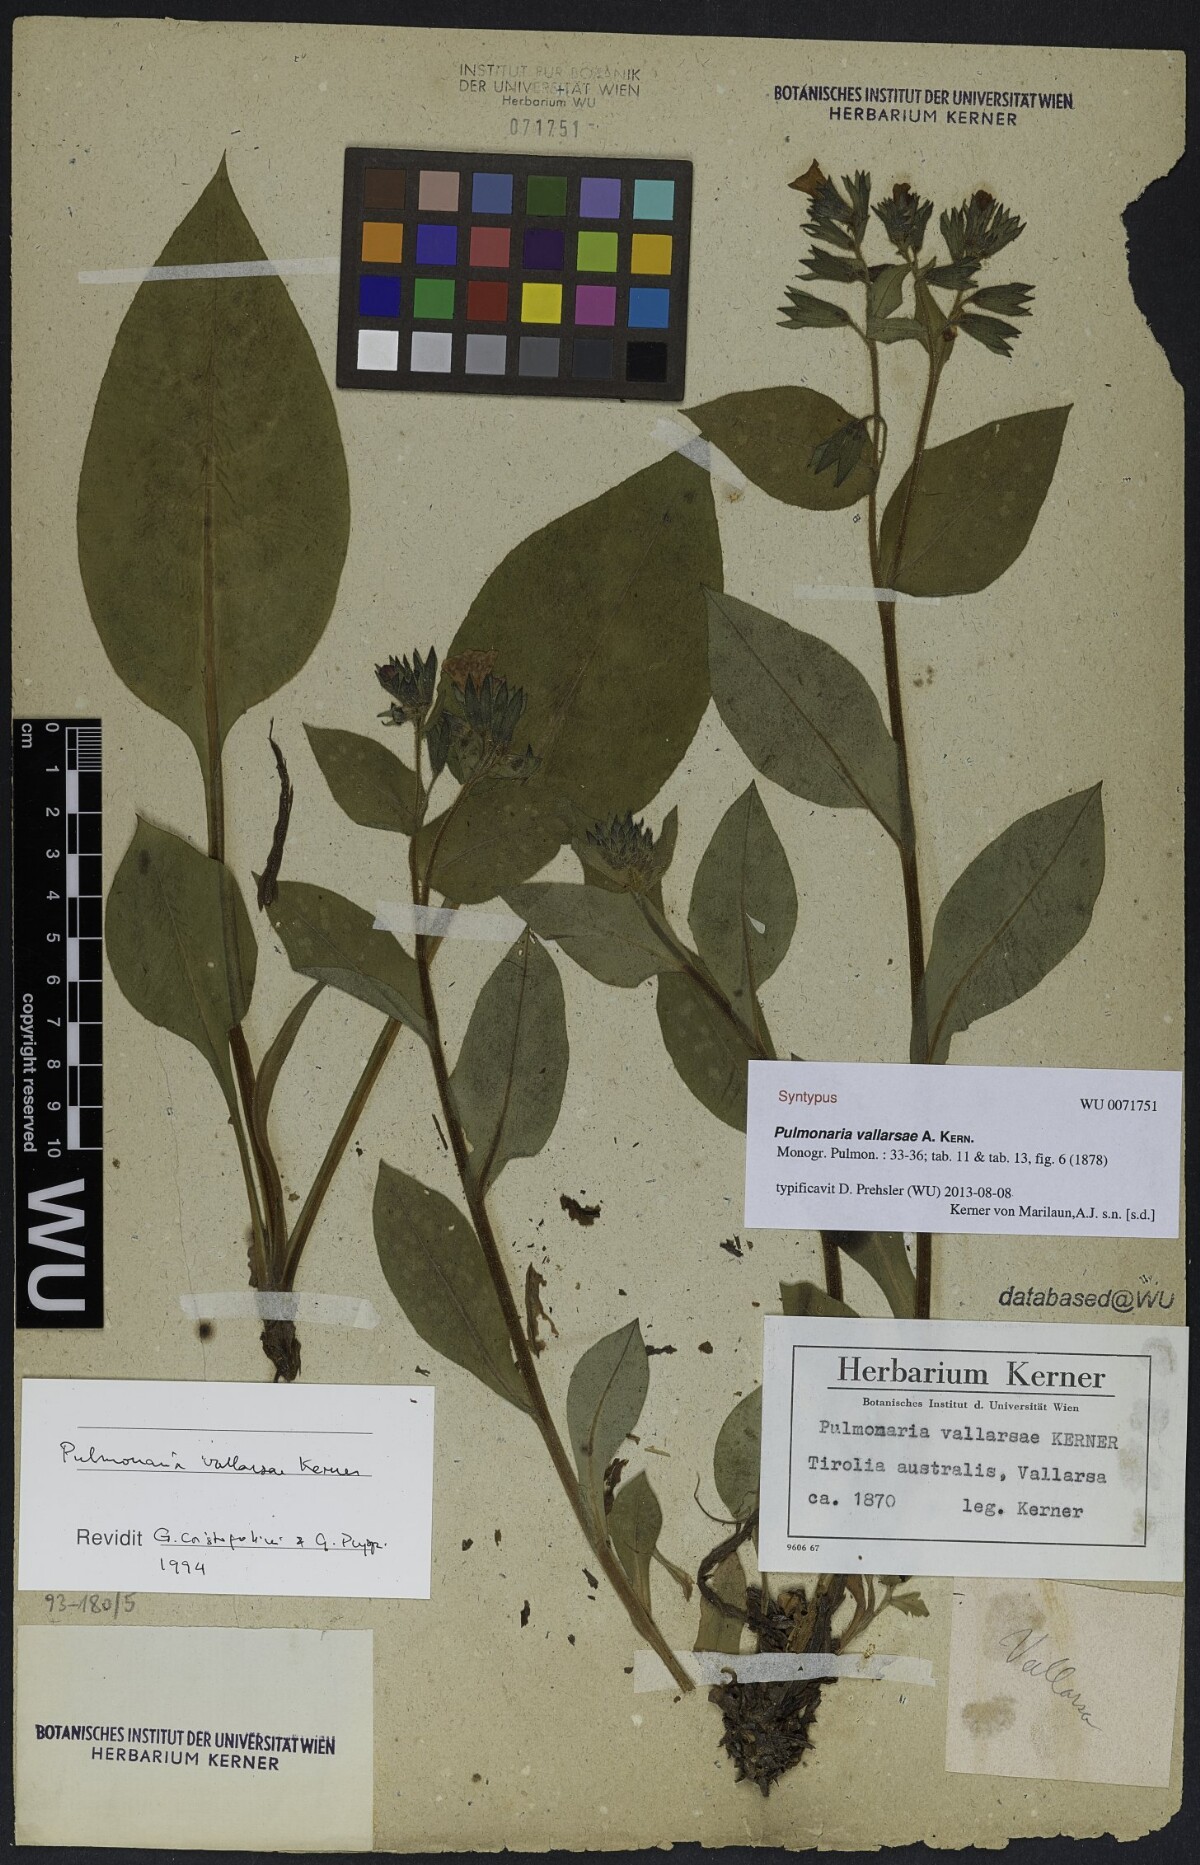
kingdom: Plantae
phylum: Tracheophyta
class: Magnoliopsida
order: Boraginales
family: Boraginaceae
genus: Pulmonaria
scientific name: Pulmonaria hirta
